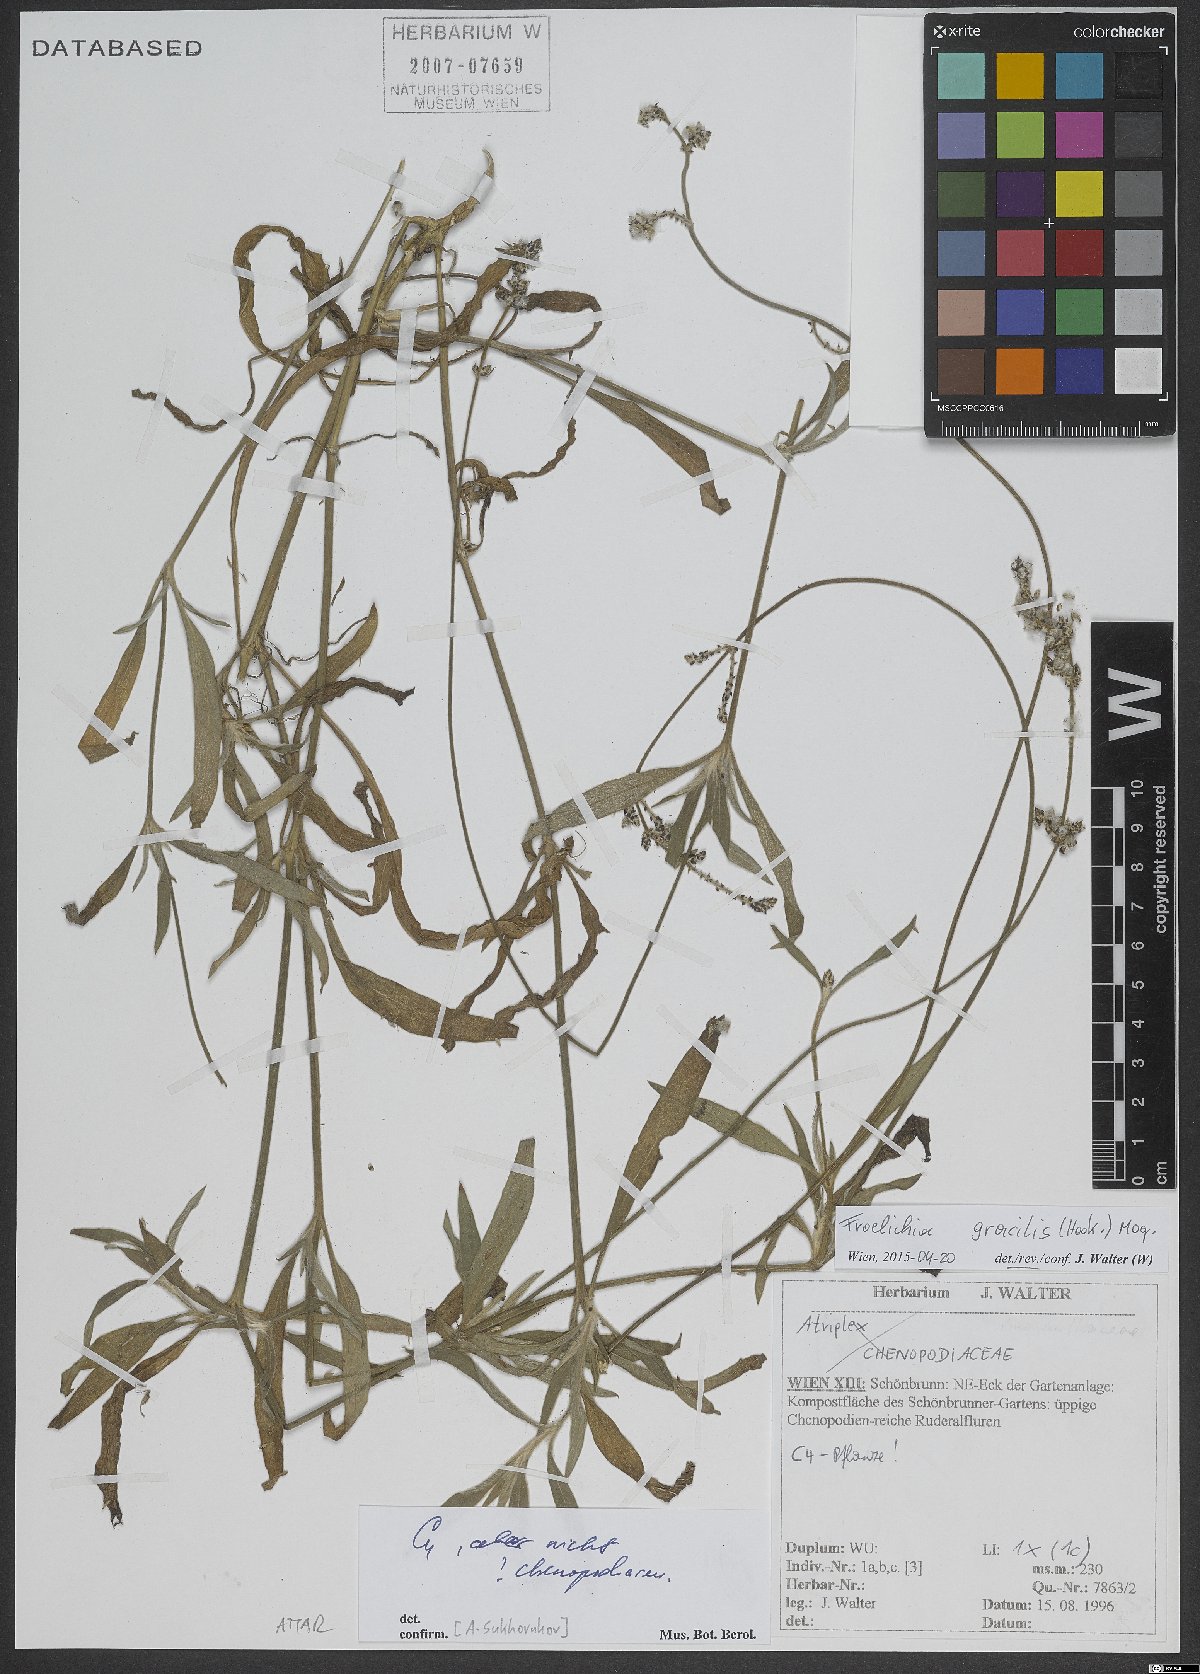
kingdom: Plantae
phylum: Tracheophyta
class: Magnoliopsida
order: Caryophyllales
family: Amaranthaceae
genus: Froelichia
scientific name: Froelichia gracilis
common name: Slender cottonweed
